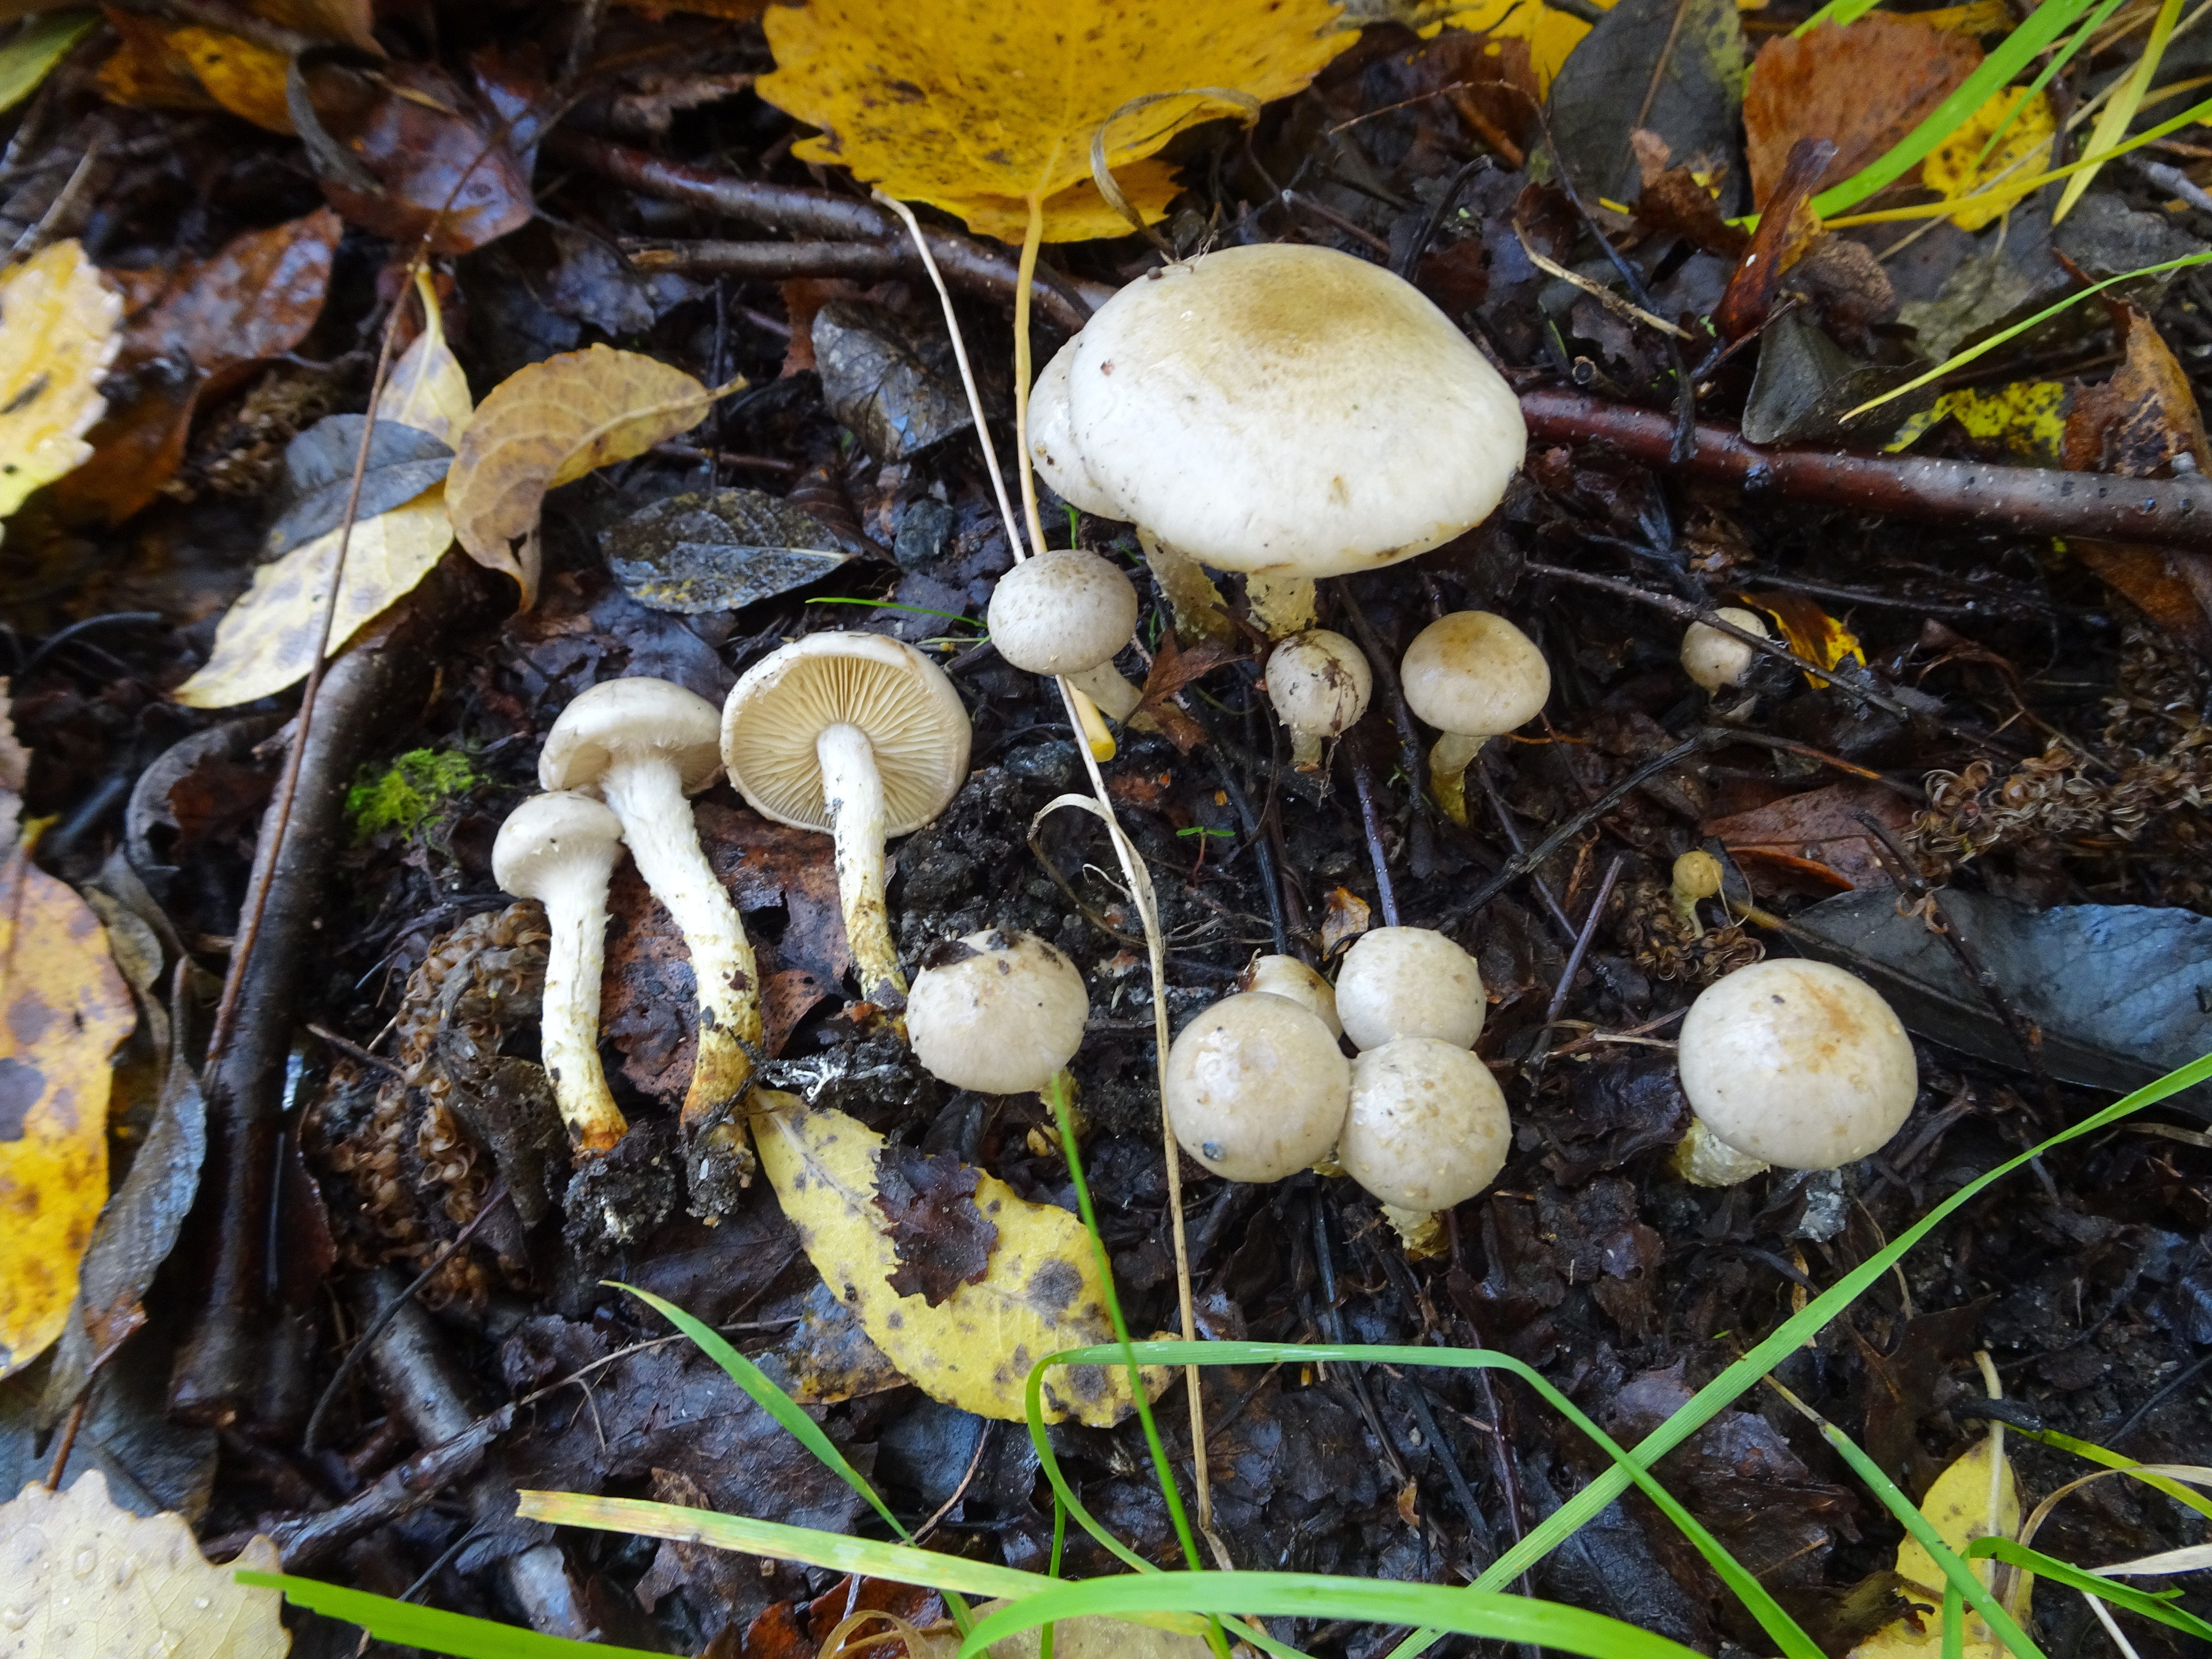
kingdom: Fungi
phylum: Basidiomycota
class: Agaricomycetes
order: Agaricales
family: Strophariaceae
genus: Pholiota
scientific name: Pholiota gummosa
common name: Sticky scalycap
